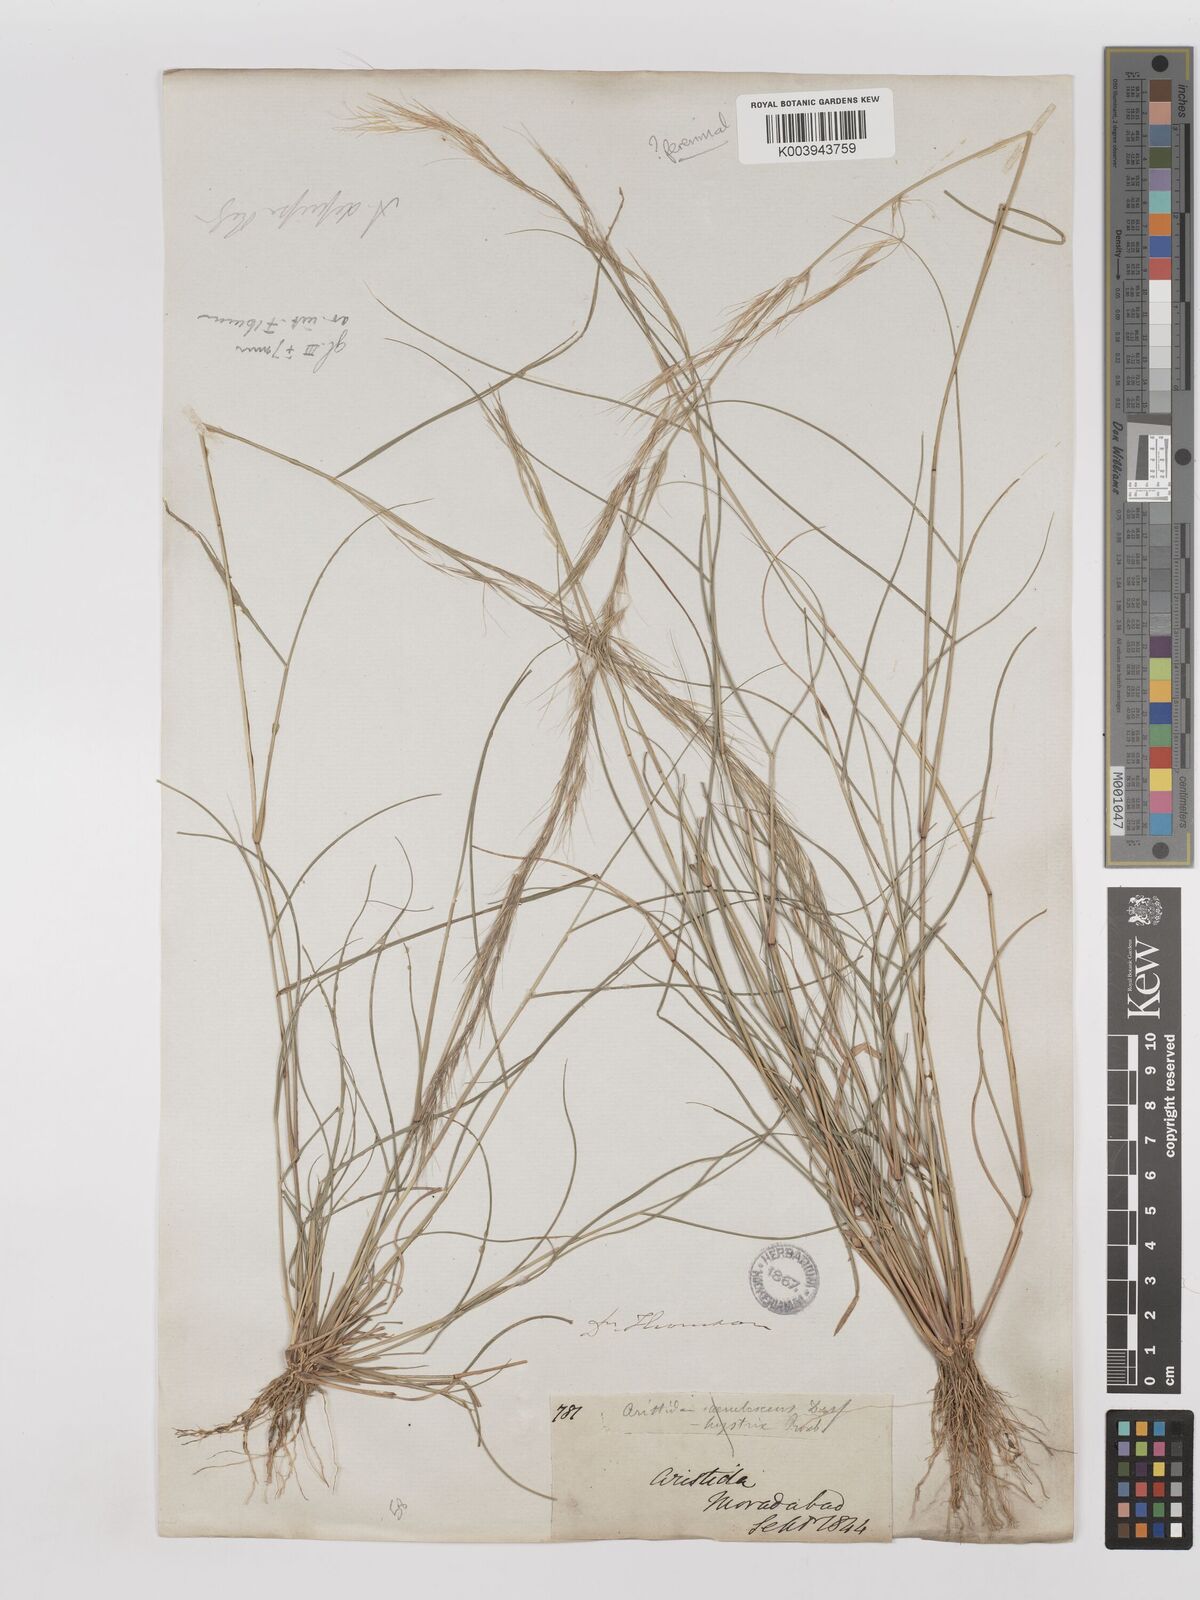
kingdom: Plantae
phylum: Tracheophyta
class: Liliopsida
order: Poales
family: Poaceae
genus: Aristida
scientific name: Aristida adscensionis
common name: Sixweeks threeawn
